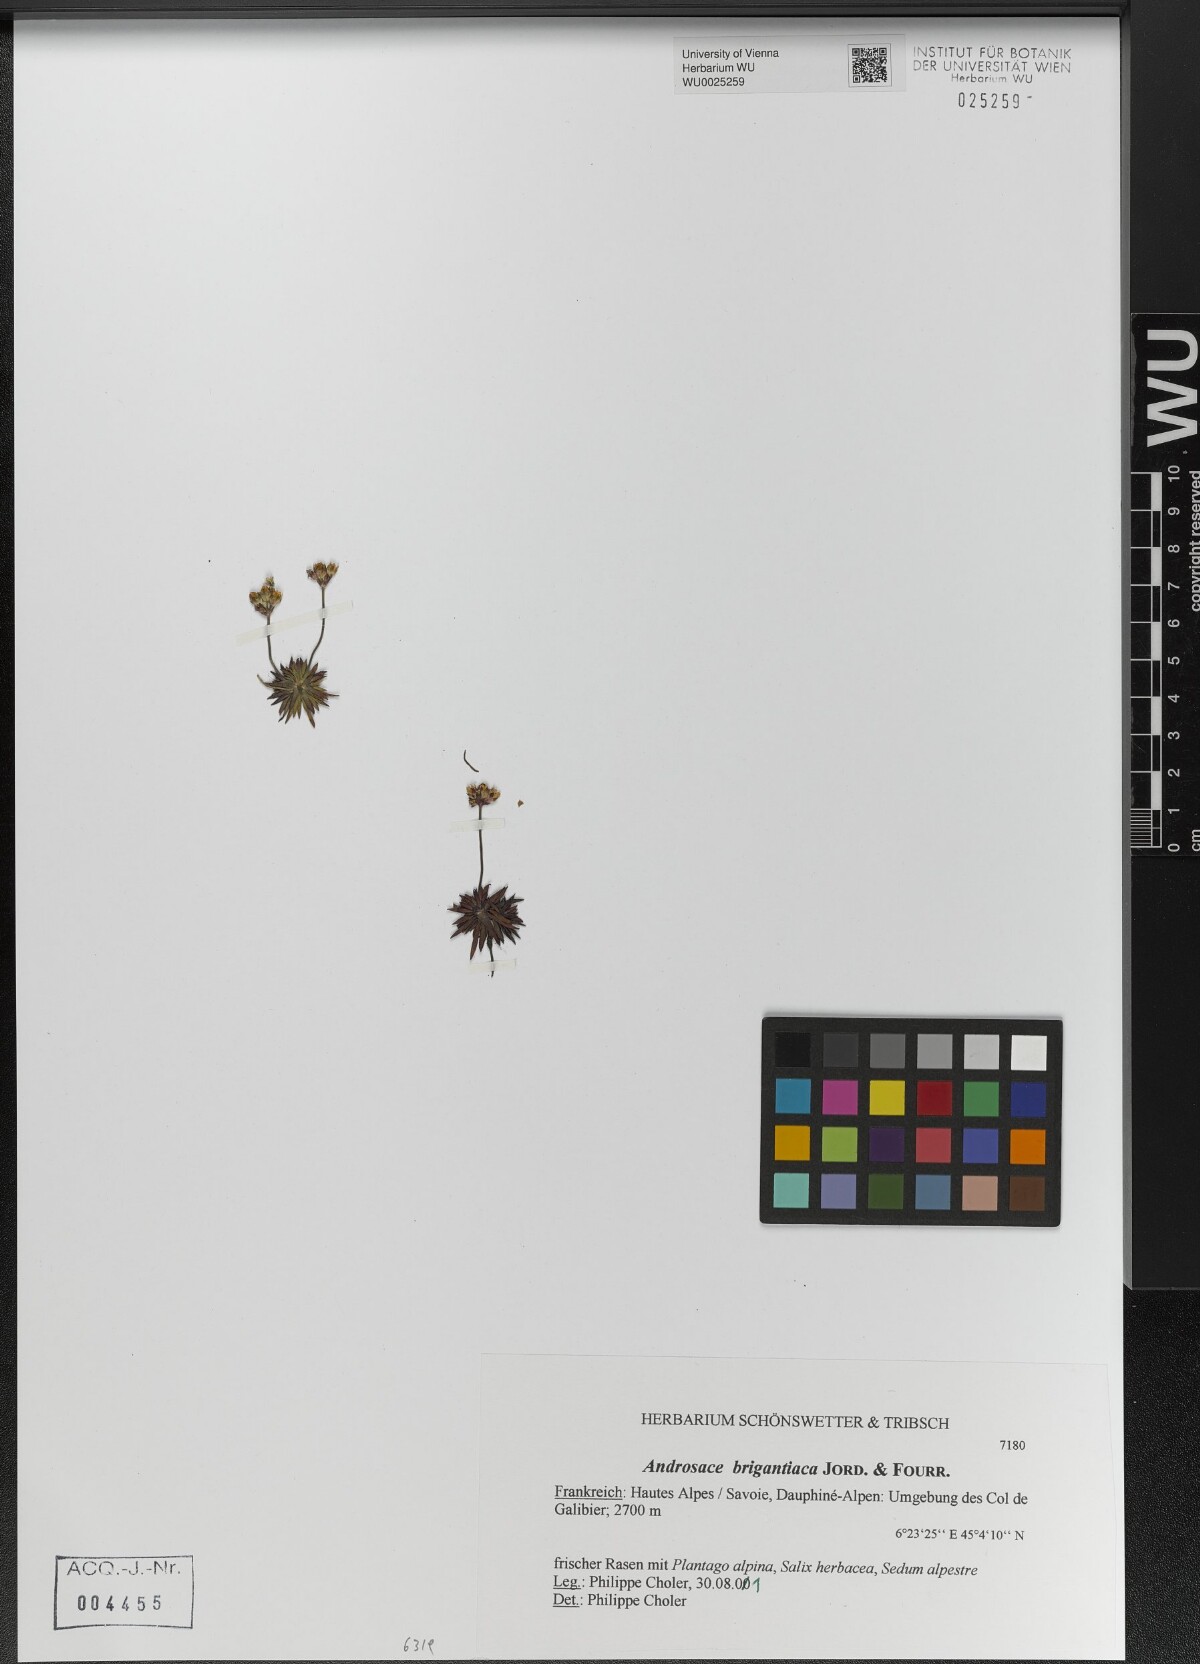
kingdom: Plantae
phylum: Tracheophyta
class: Magnoliopsida
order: Ericales
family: Primulaceae
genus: Androsace
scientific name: Androsace adfinis
